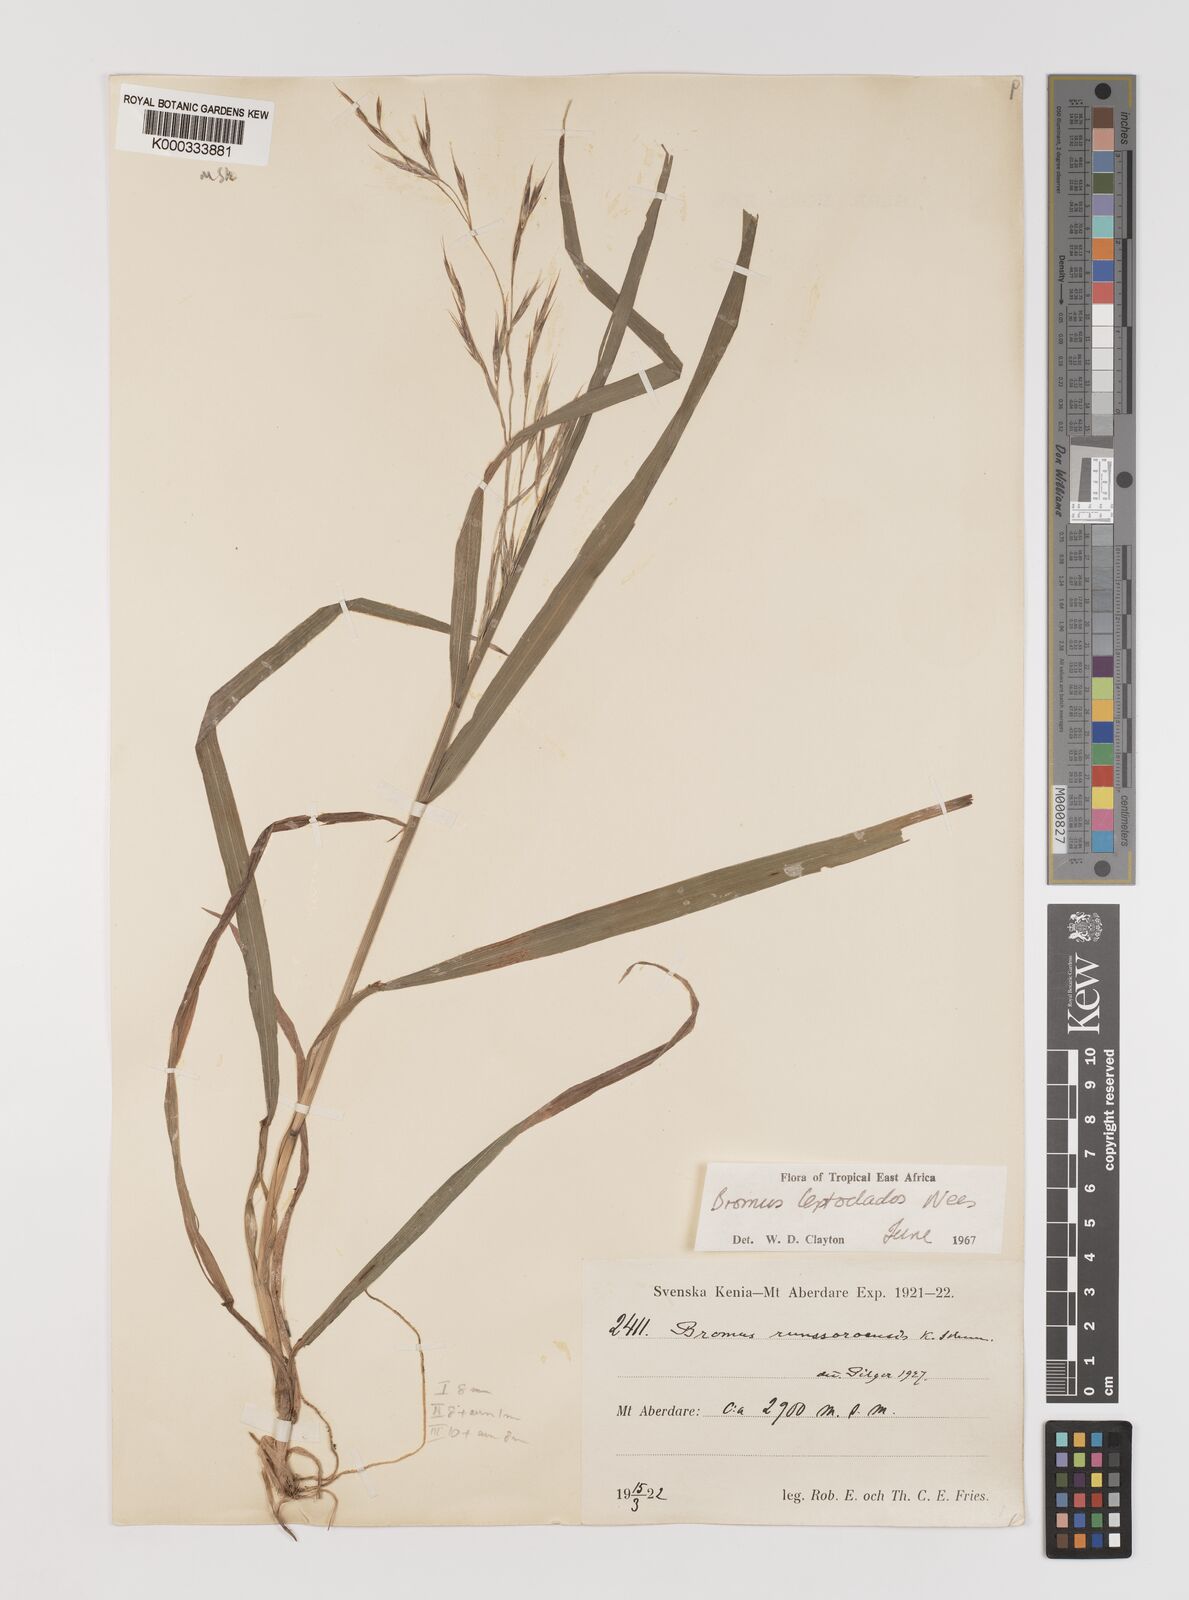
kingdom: Plantae
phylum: Tracheophyta
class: Liliopsida
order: Poales
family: Poaceae
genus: Bromus
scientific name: Bromus leptoclados
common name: Mountain bromegrass
